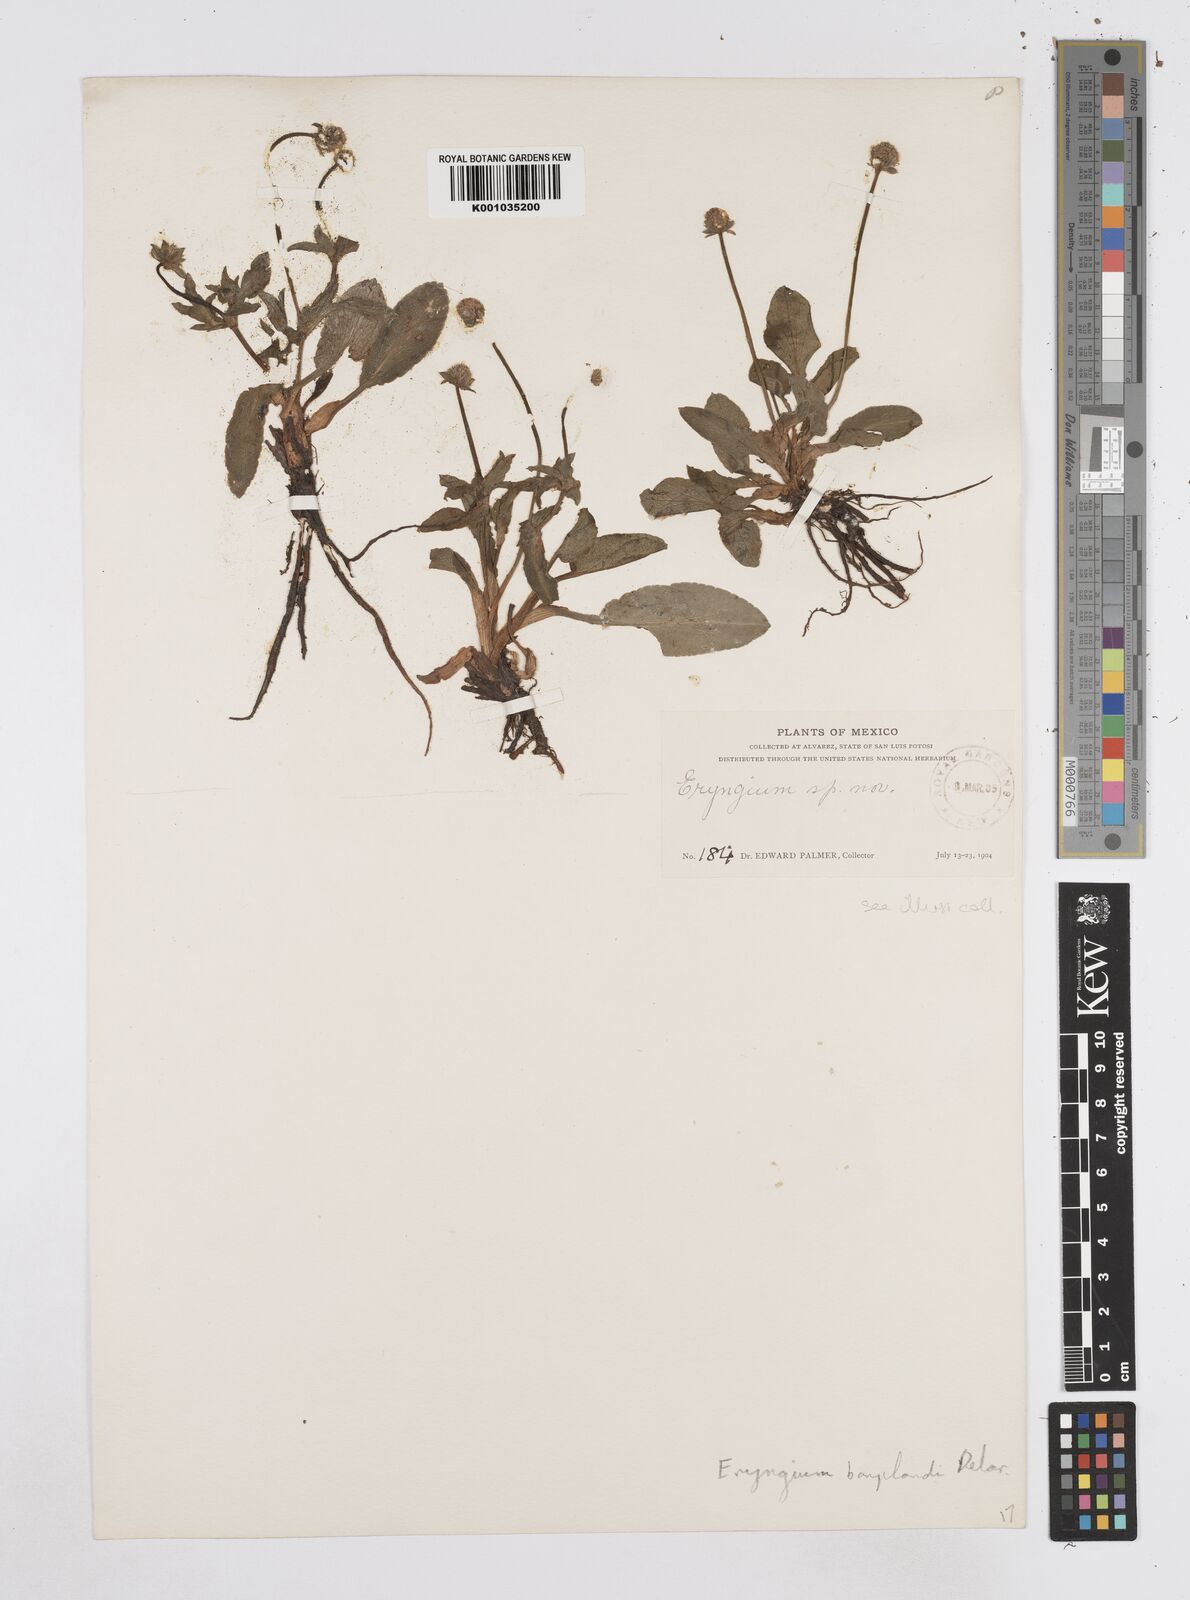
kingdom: Plantae
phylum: Tracheophyta
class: Magnoliopsida
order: Apiales
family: Apiaceae
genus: Eryngium
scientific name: Eryngium bonplandii
